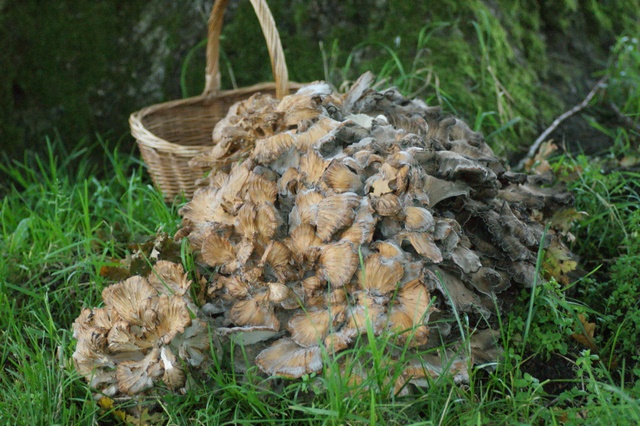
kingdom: Fungi
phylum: Basidiomycota
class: Agaricomycetes
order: Polyporales
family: Grifolaceae
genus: Grifola
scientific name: Grifola frondosa
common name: tueporesvamp
